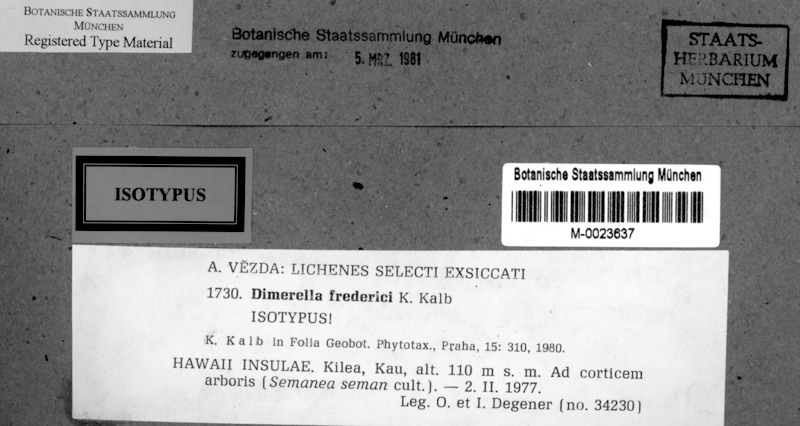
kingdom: Fungi
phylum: Ascomycota
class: Lecanoromycetes
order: Ostropales
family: Coenogoniaceae
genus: Coenogonium
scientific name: Coenogonium frederici
